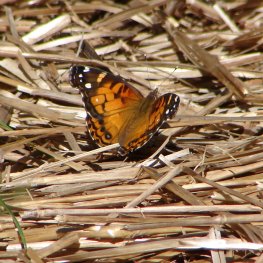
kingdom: Animalia
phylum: Arthropoda
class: Insecta
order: Lepidoptera
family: Nymphalidae
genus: Vanessa
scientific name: Vanessa virginiensis
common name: American Lady
